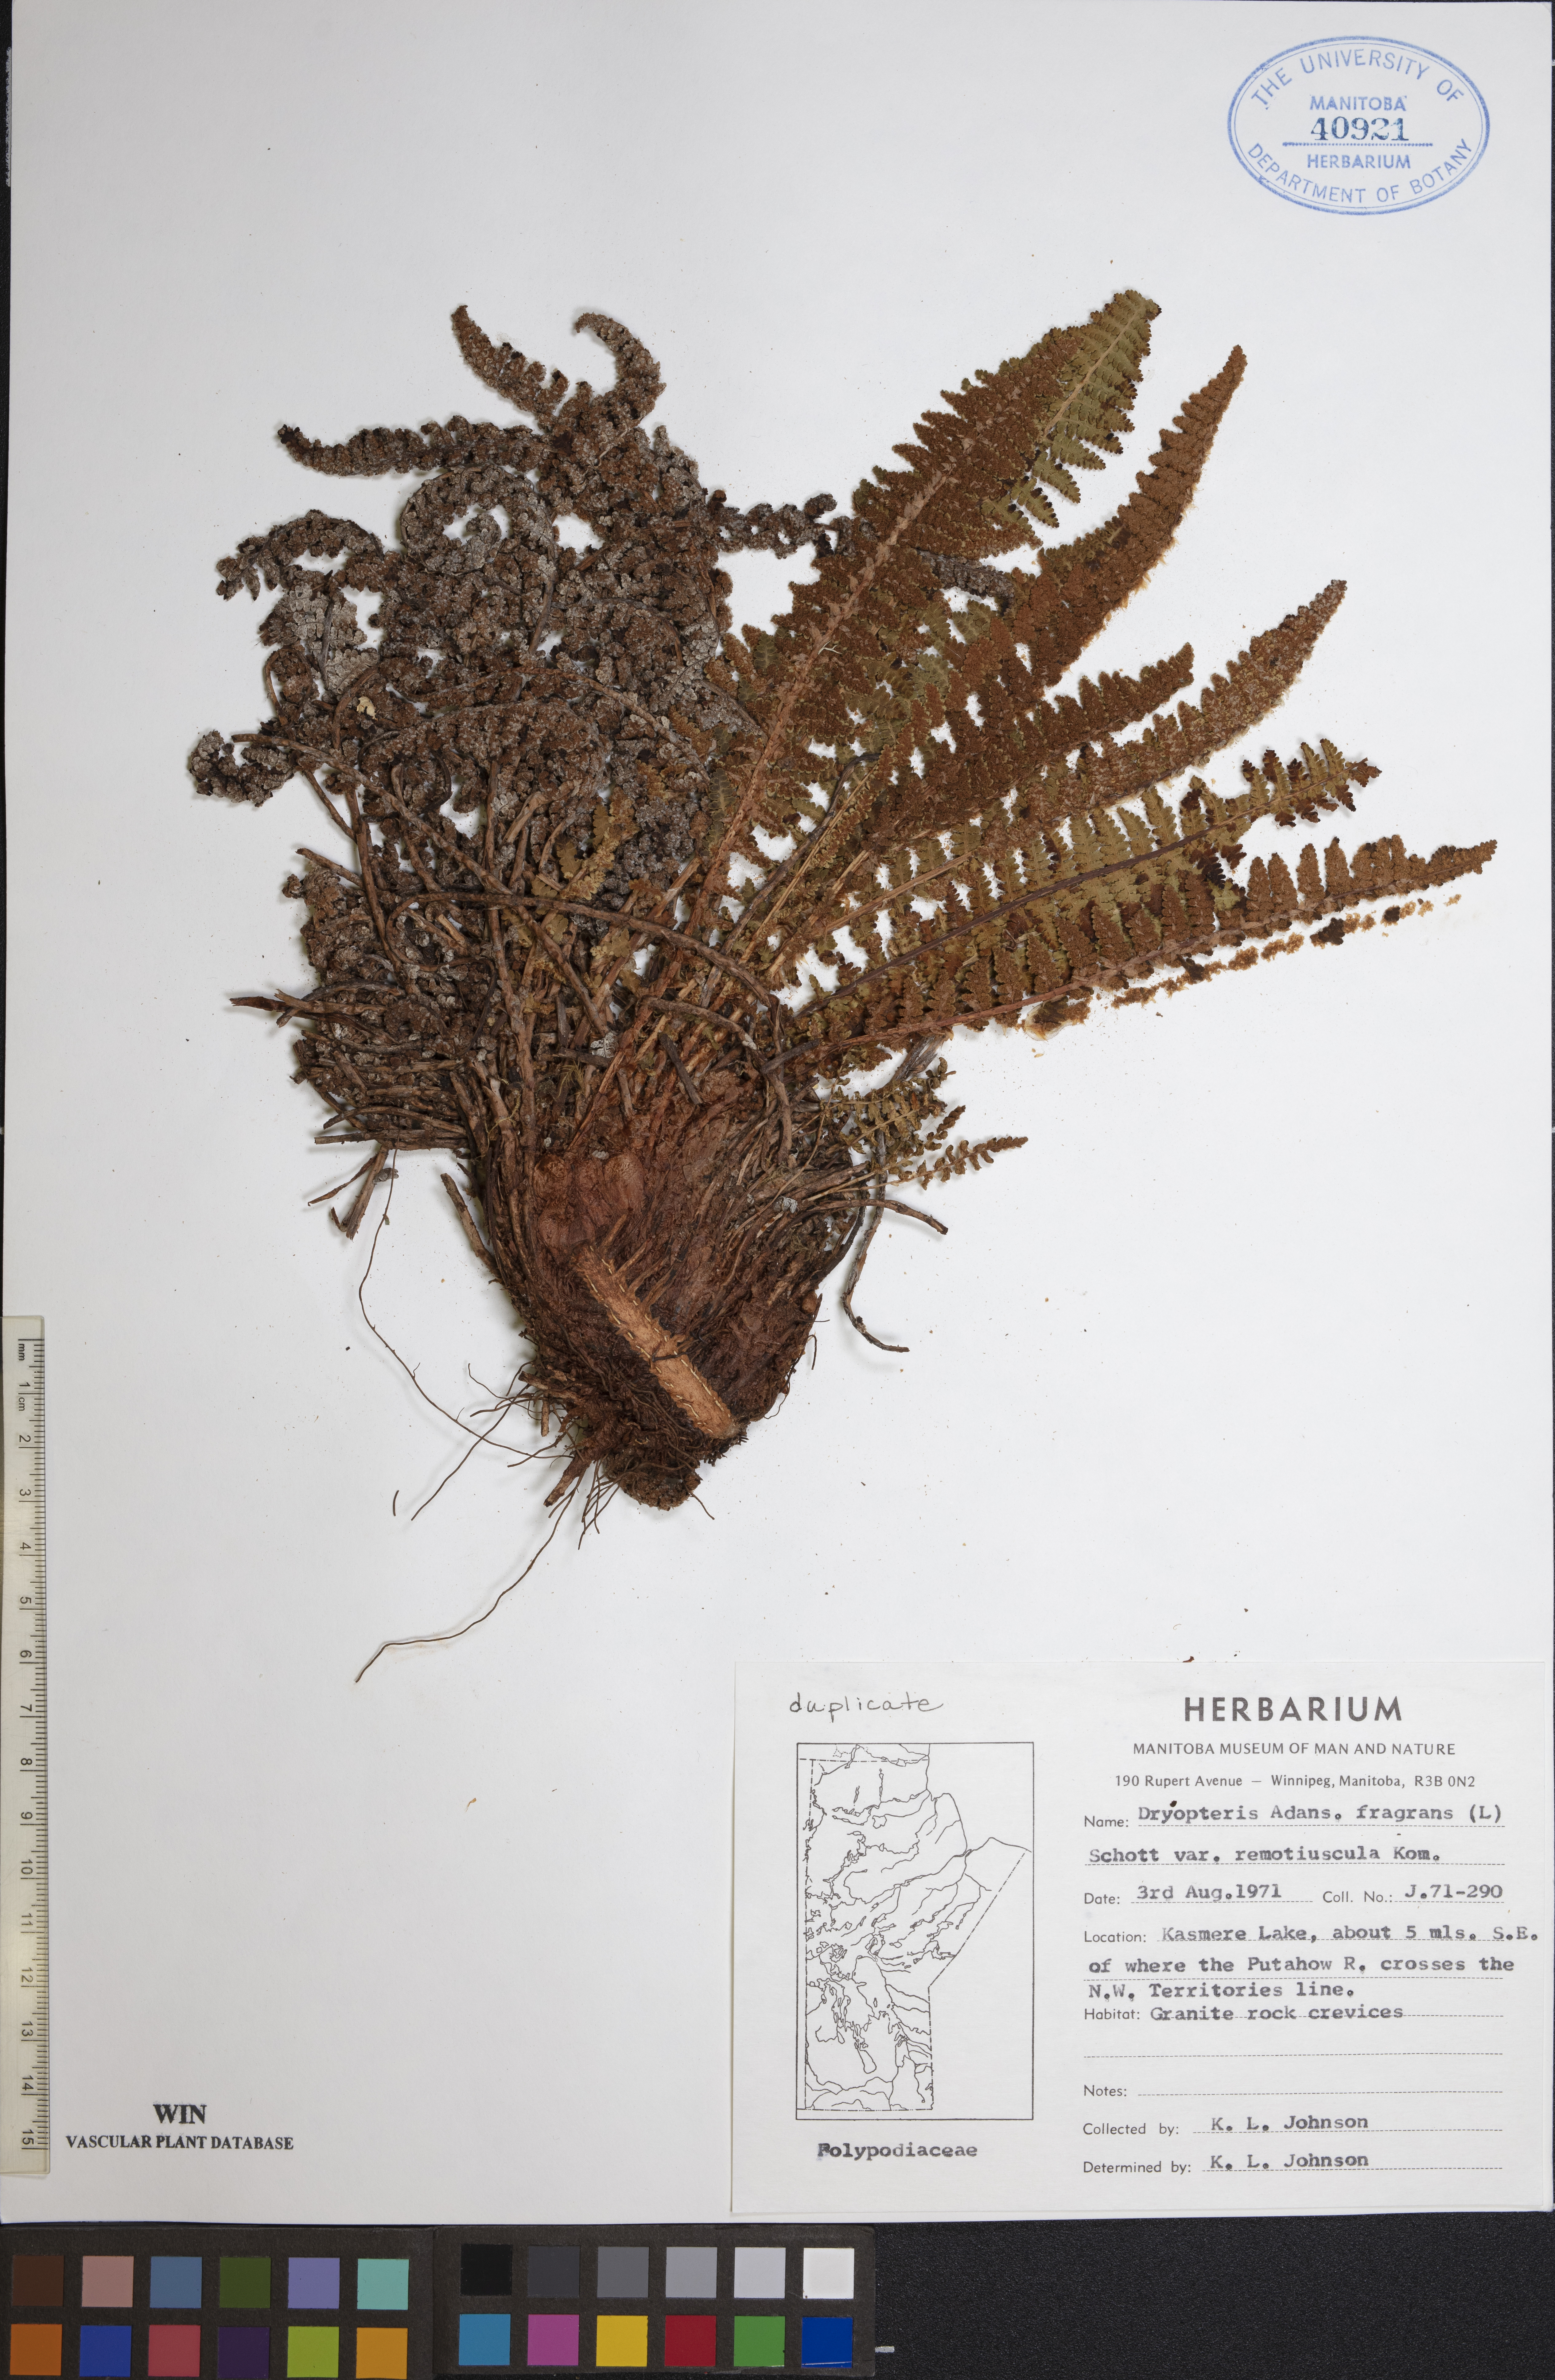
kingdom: Plantae
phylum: Tracheophyta
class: Polypodiopsida
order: Polypodiales
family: Dryopteridaceae
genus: Dryopteris
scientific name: Dryopteris fragrans
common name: Fragrant wood fern
